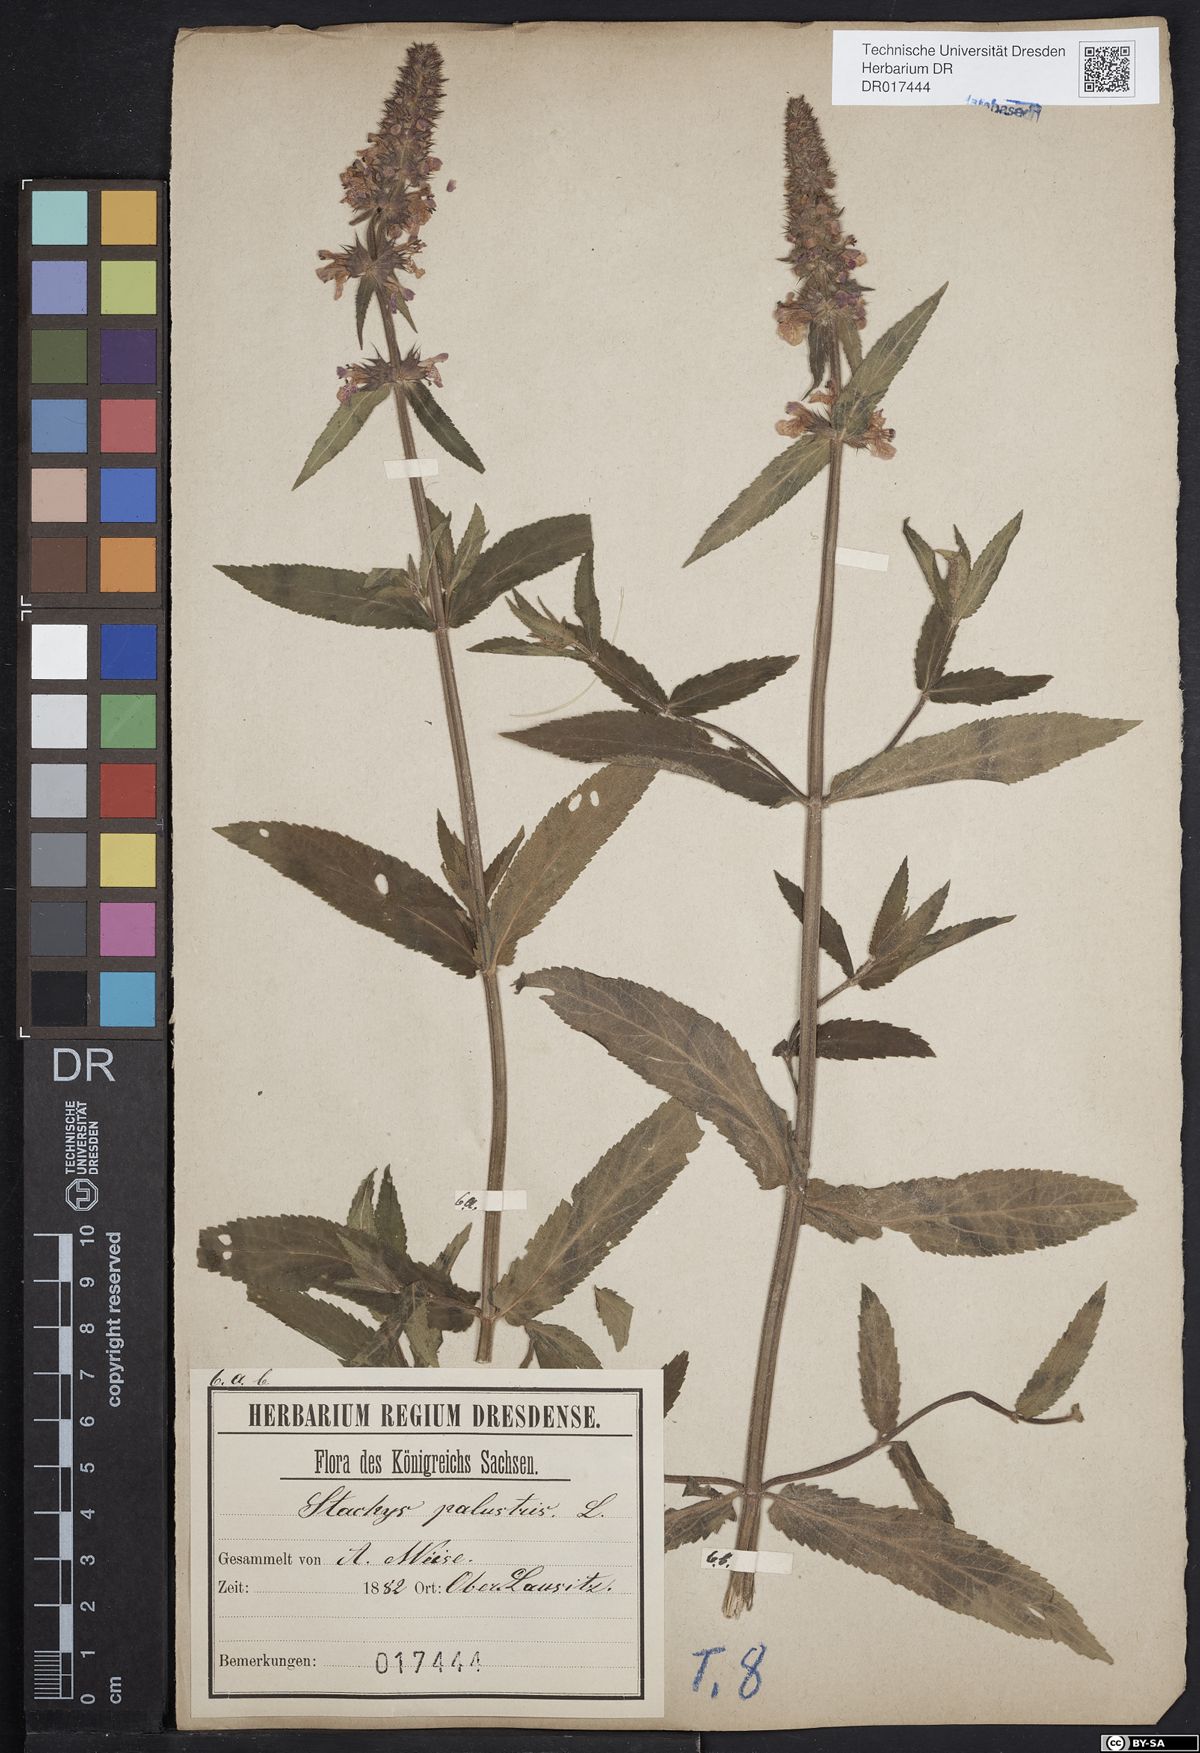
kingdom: Plantae
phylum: Tracheophyta
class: Magnoliopsida
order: Lamiales
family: Lamiaceae
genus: Stachys
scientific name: Stachys palustris
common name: Marsh woundwort
